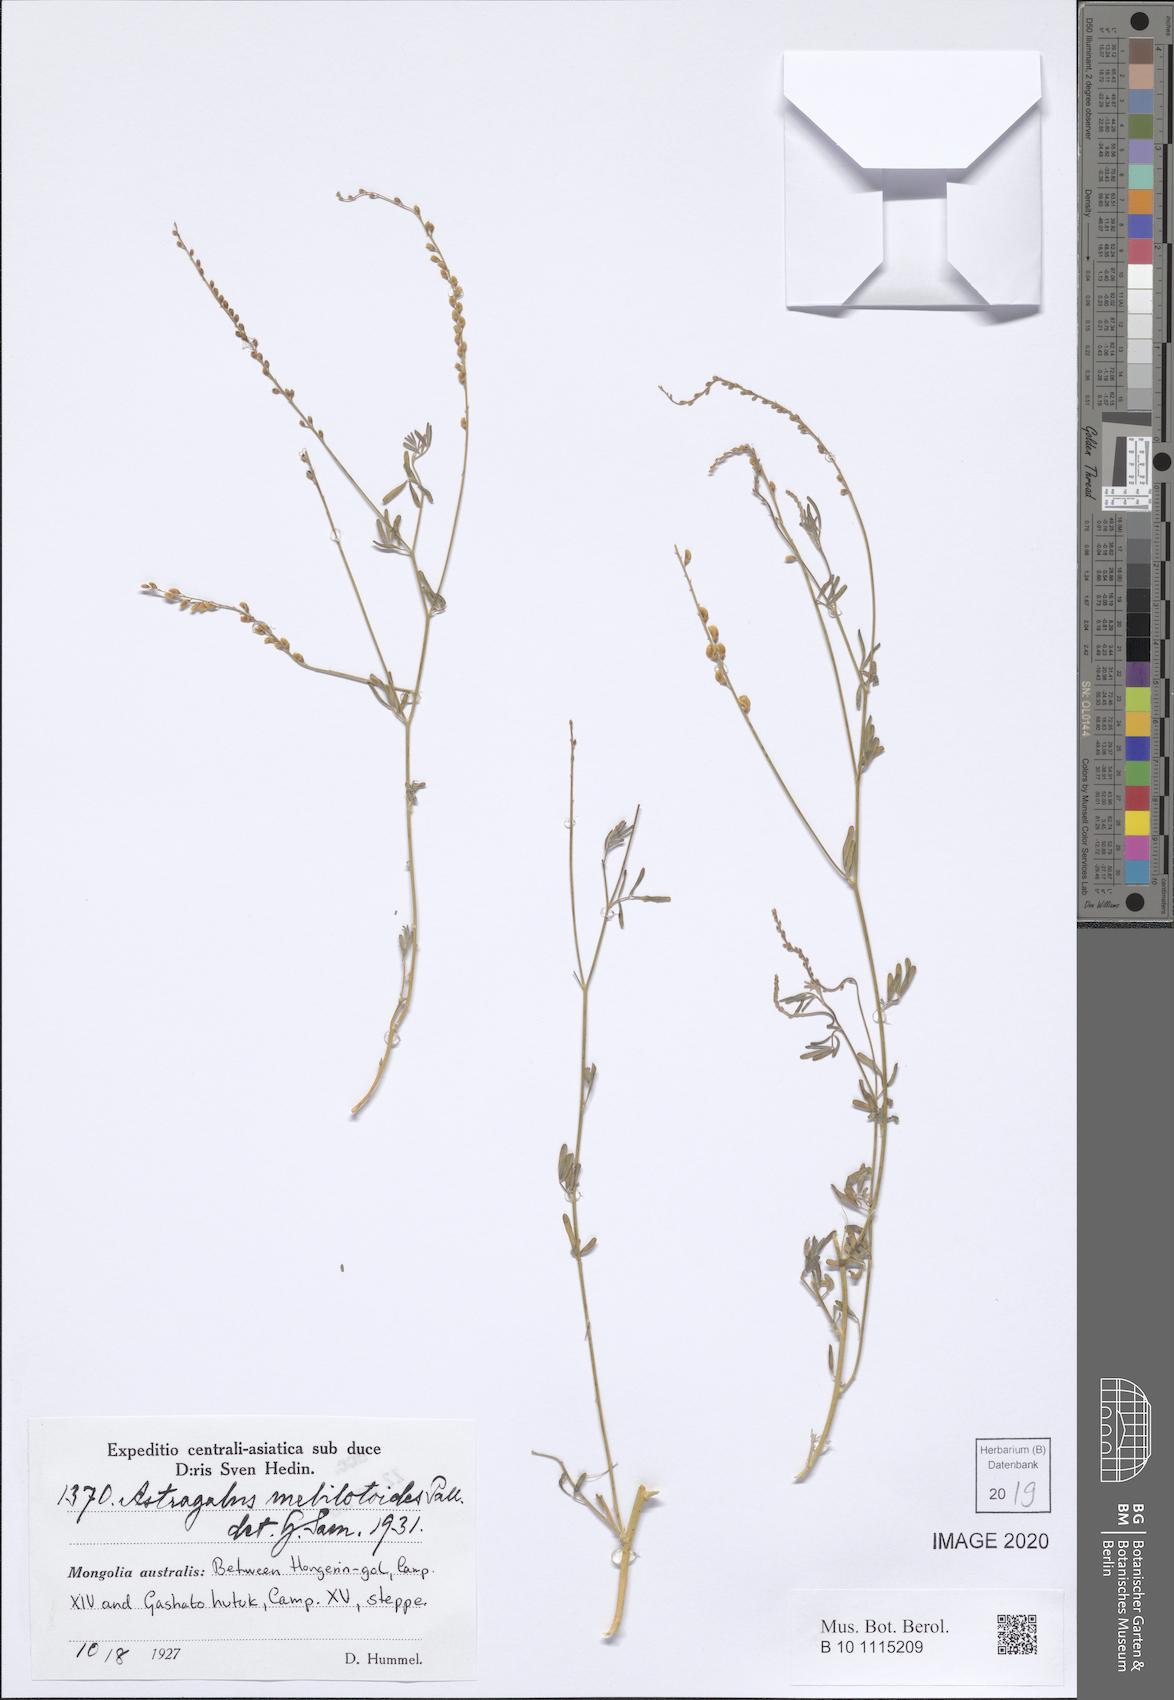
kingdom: Plantae
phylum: Tracheophyta
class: Magnoliopsida
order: Fabales
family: Fabaceae
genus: Astragalus
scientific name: Astragalus melilotoides
